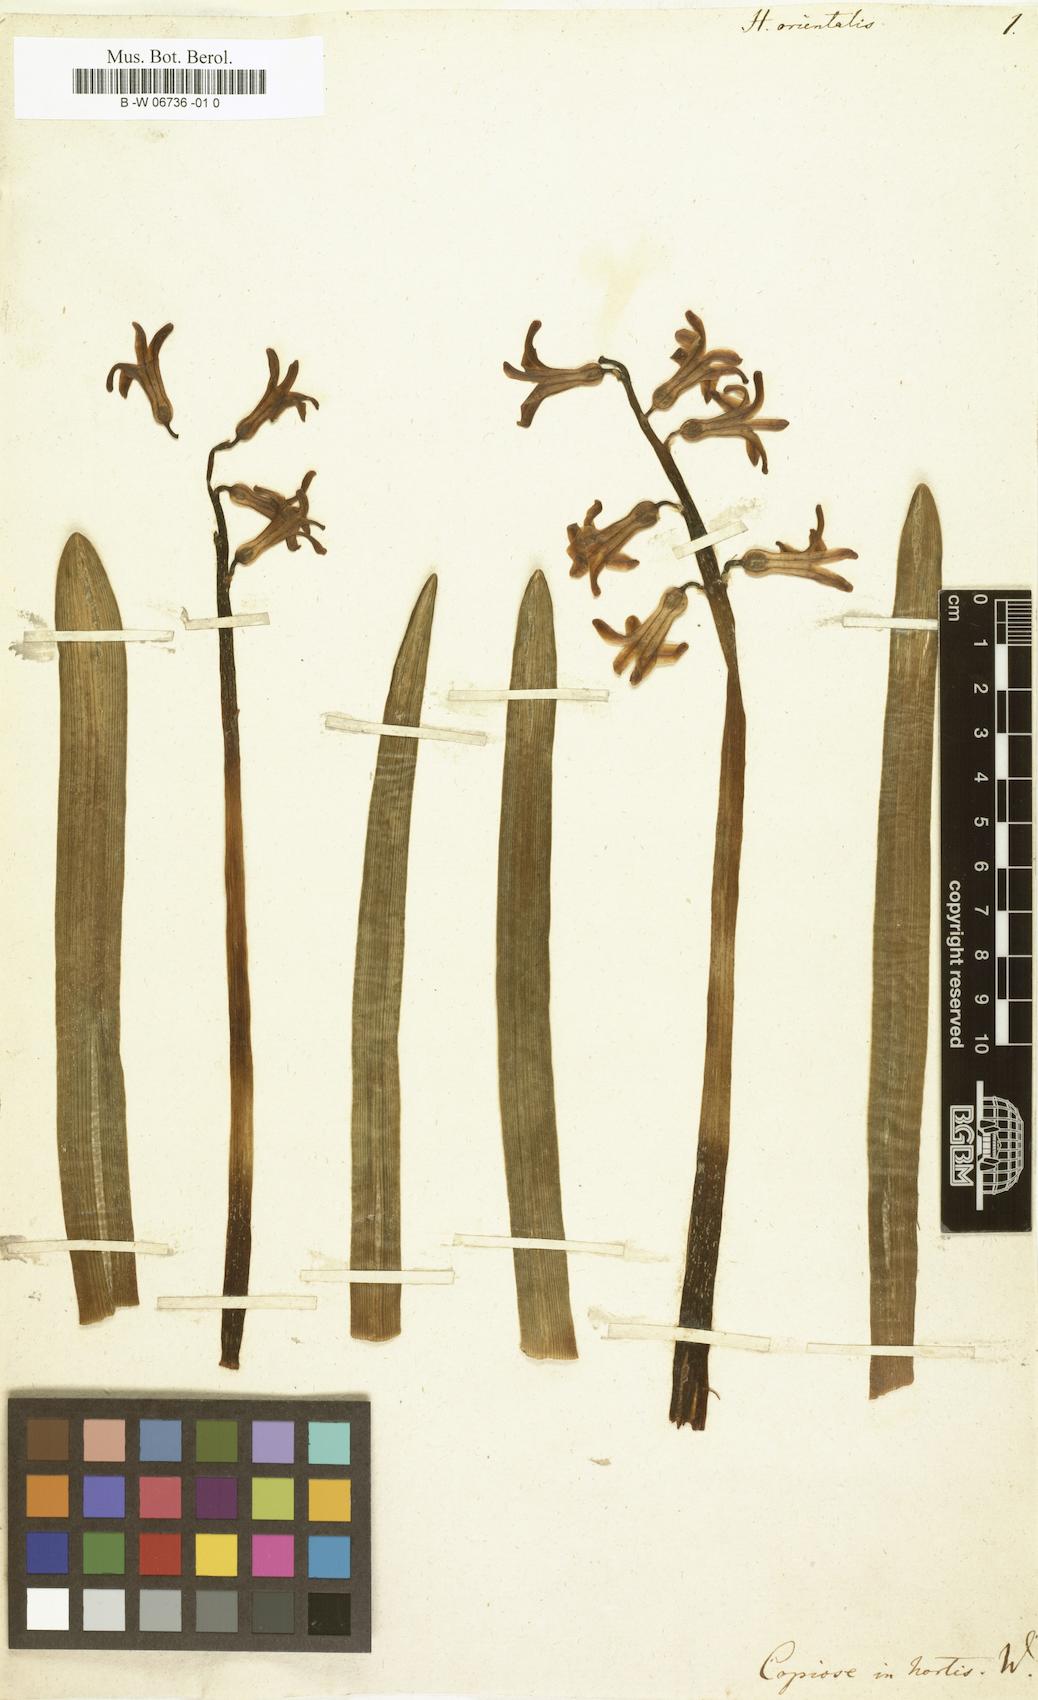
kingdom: Plantae
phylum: Tracheophyta
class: Liliopsida
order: Asparagales
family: Asparagaceae
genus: Hyacinthus
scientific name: Hyacinthus orientalis
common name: Hyacinth
